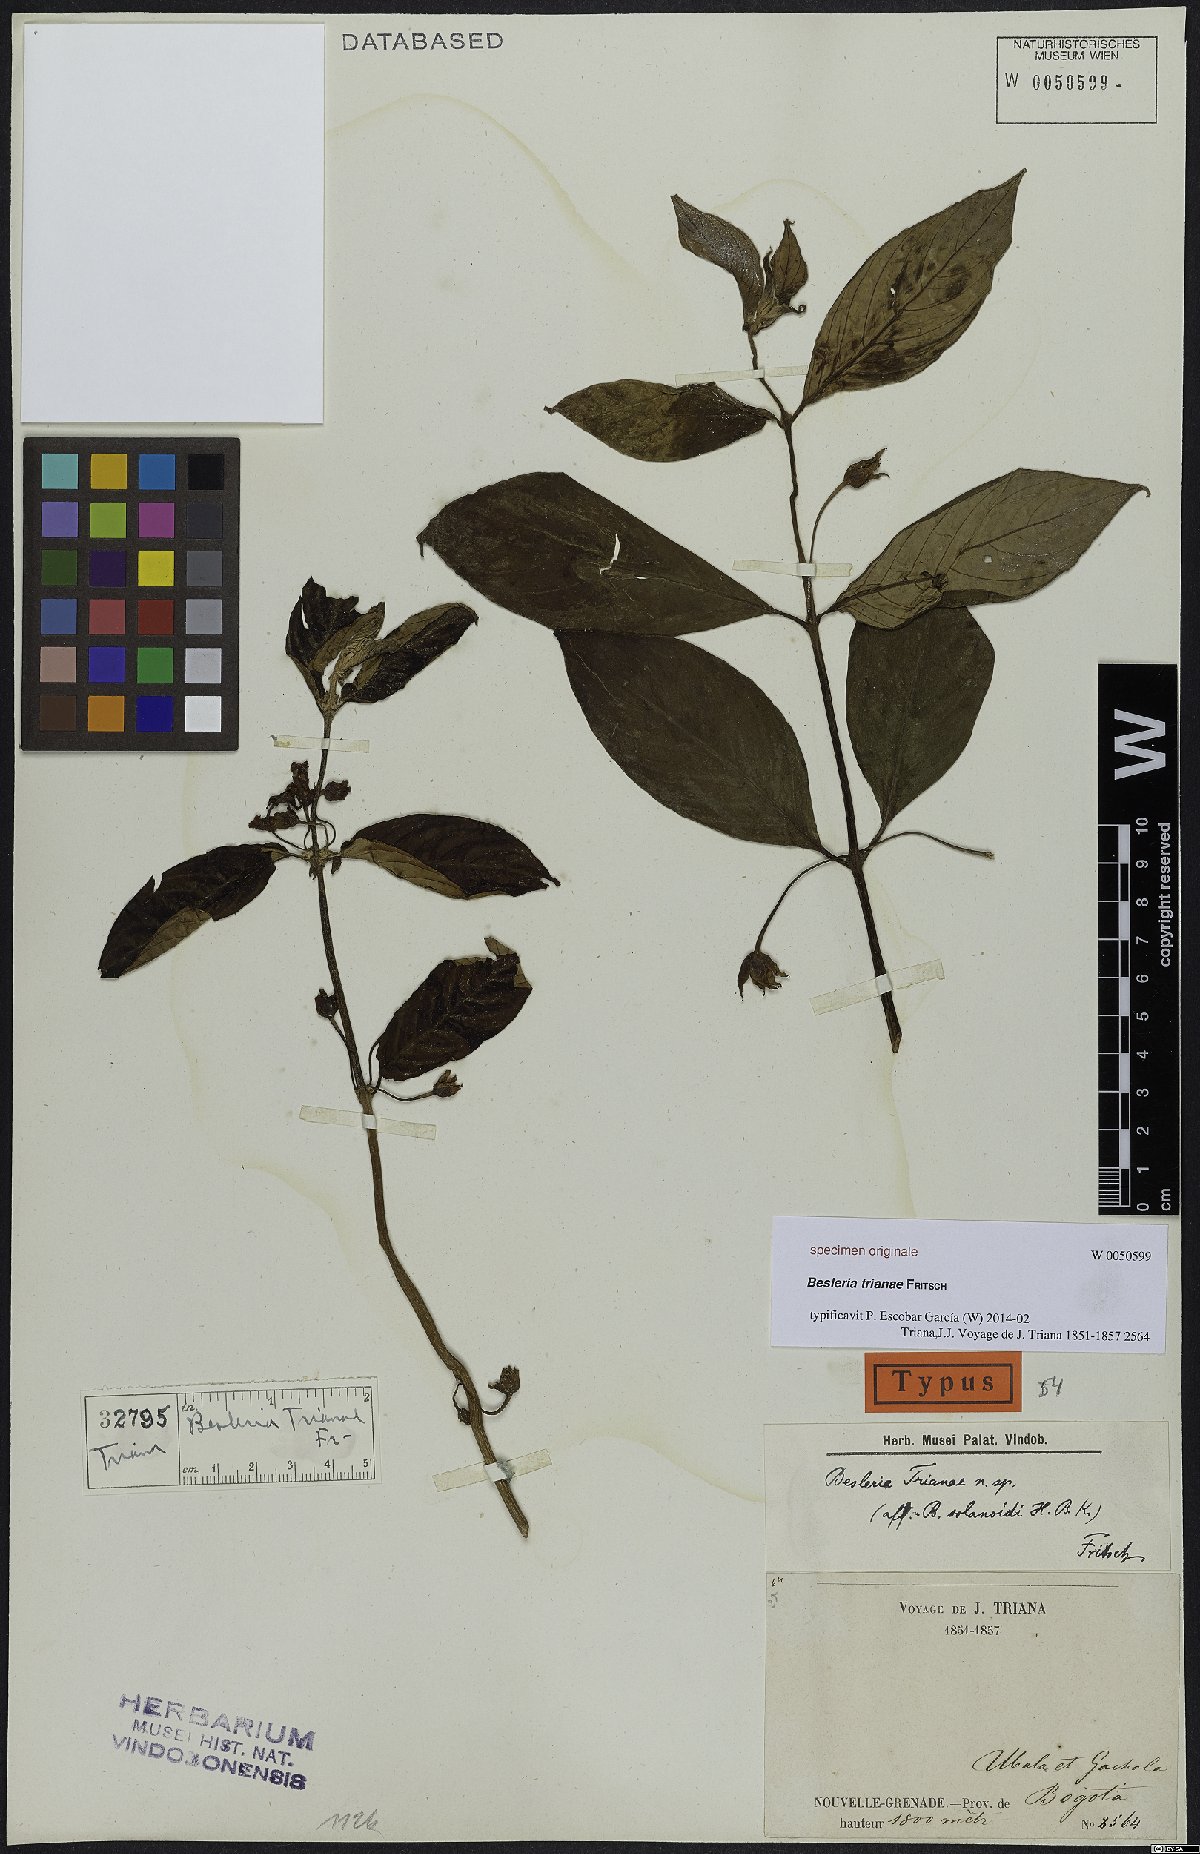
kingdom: Plantae
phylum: Tracheophyta
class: Magnoliopsida
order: Lamiales
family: Gesneriaceae
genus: Besleria
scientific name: Besleria trianae
